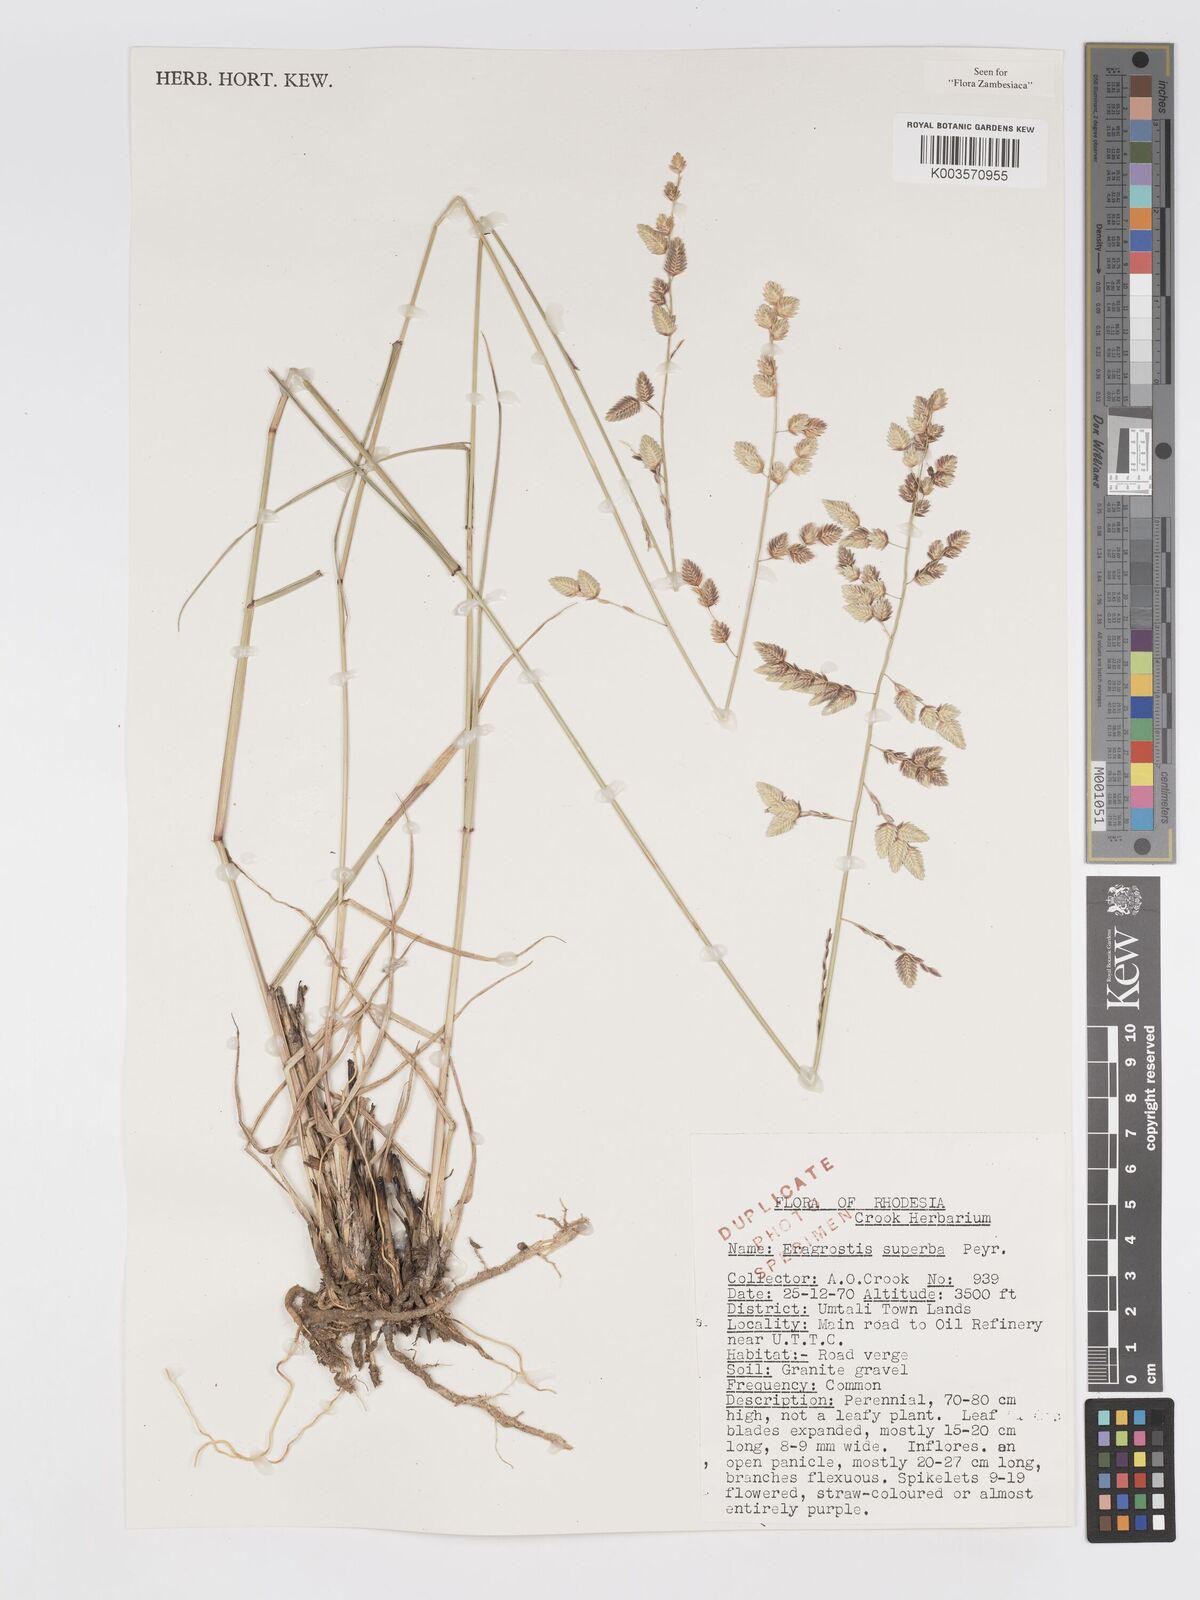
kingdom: Plantae
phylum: Tracheophyta
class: Liliopsida
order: Poales
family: Poaceae
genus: Eragrostis
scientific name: Eragrostis superba
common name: Wilman lovegrass
